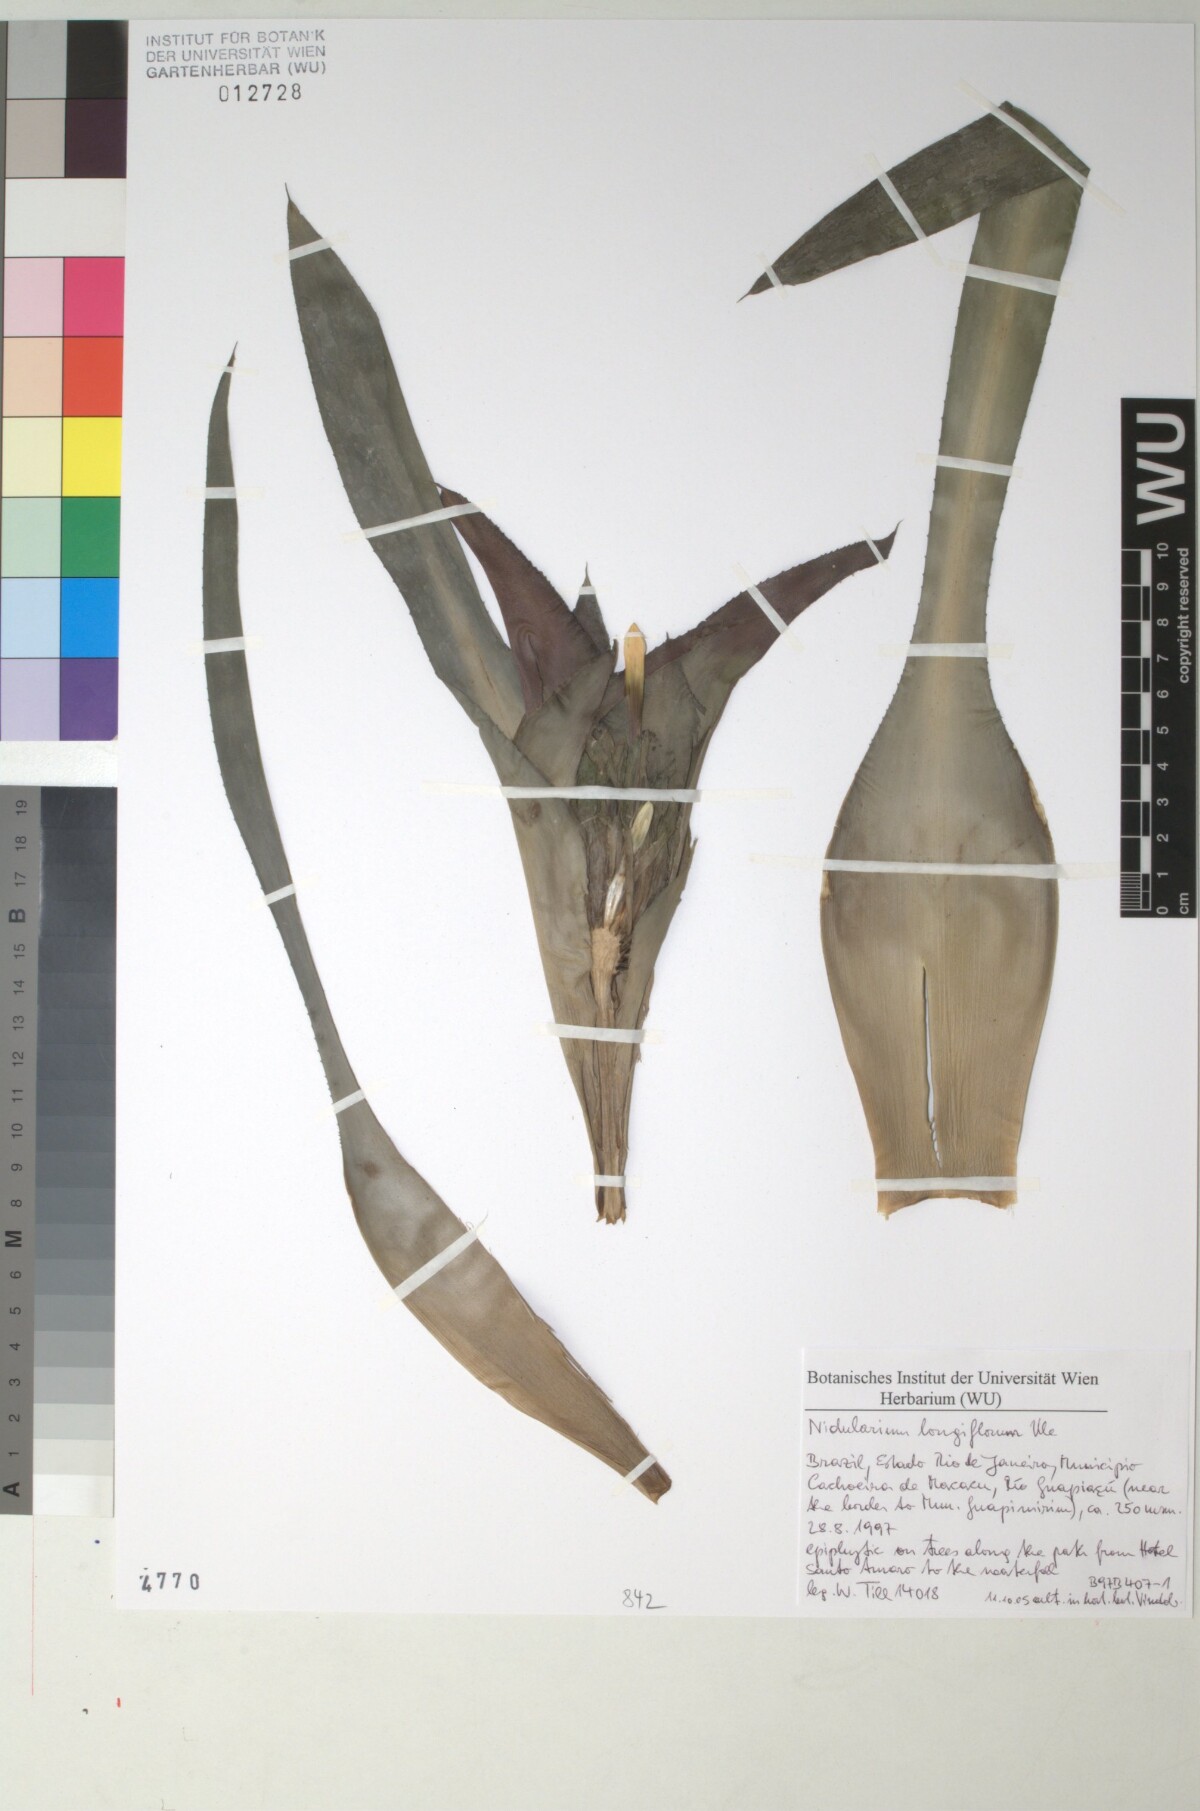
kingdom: Plantae
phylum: Tracheophyta
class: Liliopsida
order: Poales
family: Bromeliaceae
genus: Nidularium
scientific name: Nidularium longiflorum
